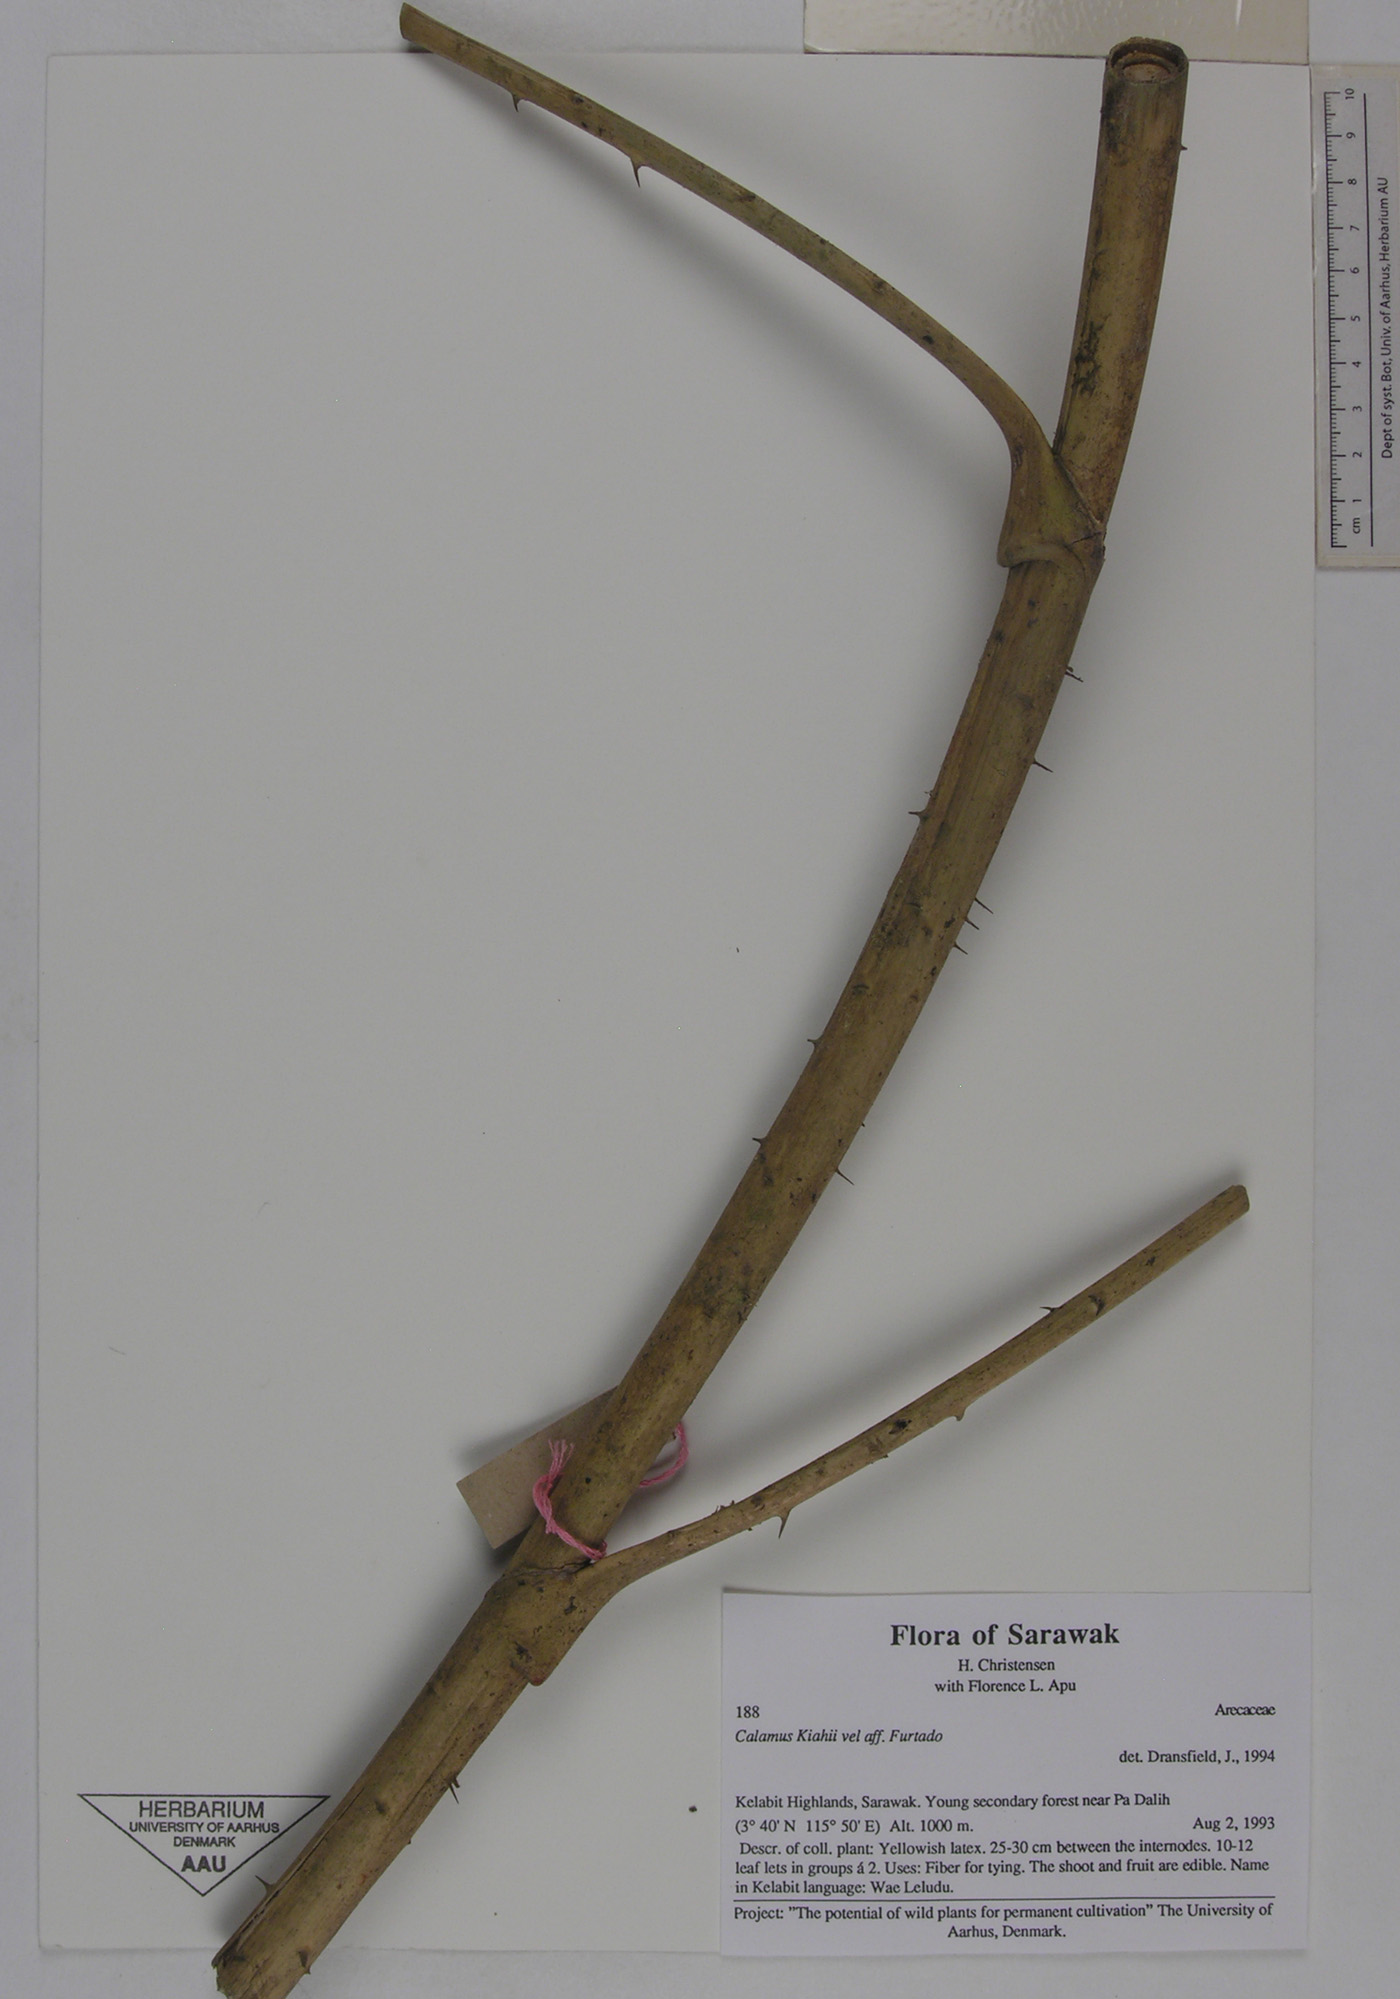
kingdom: Plantae
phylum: Tracheophyta
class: Liliopsida
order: Arecales
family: Arecaceae
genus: Calamus
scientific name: Calamus plicatus
